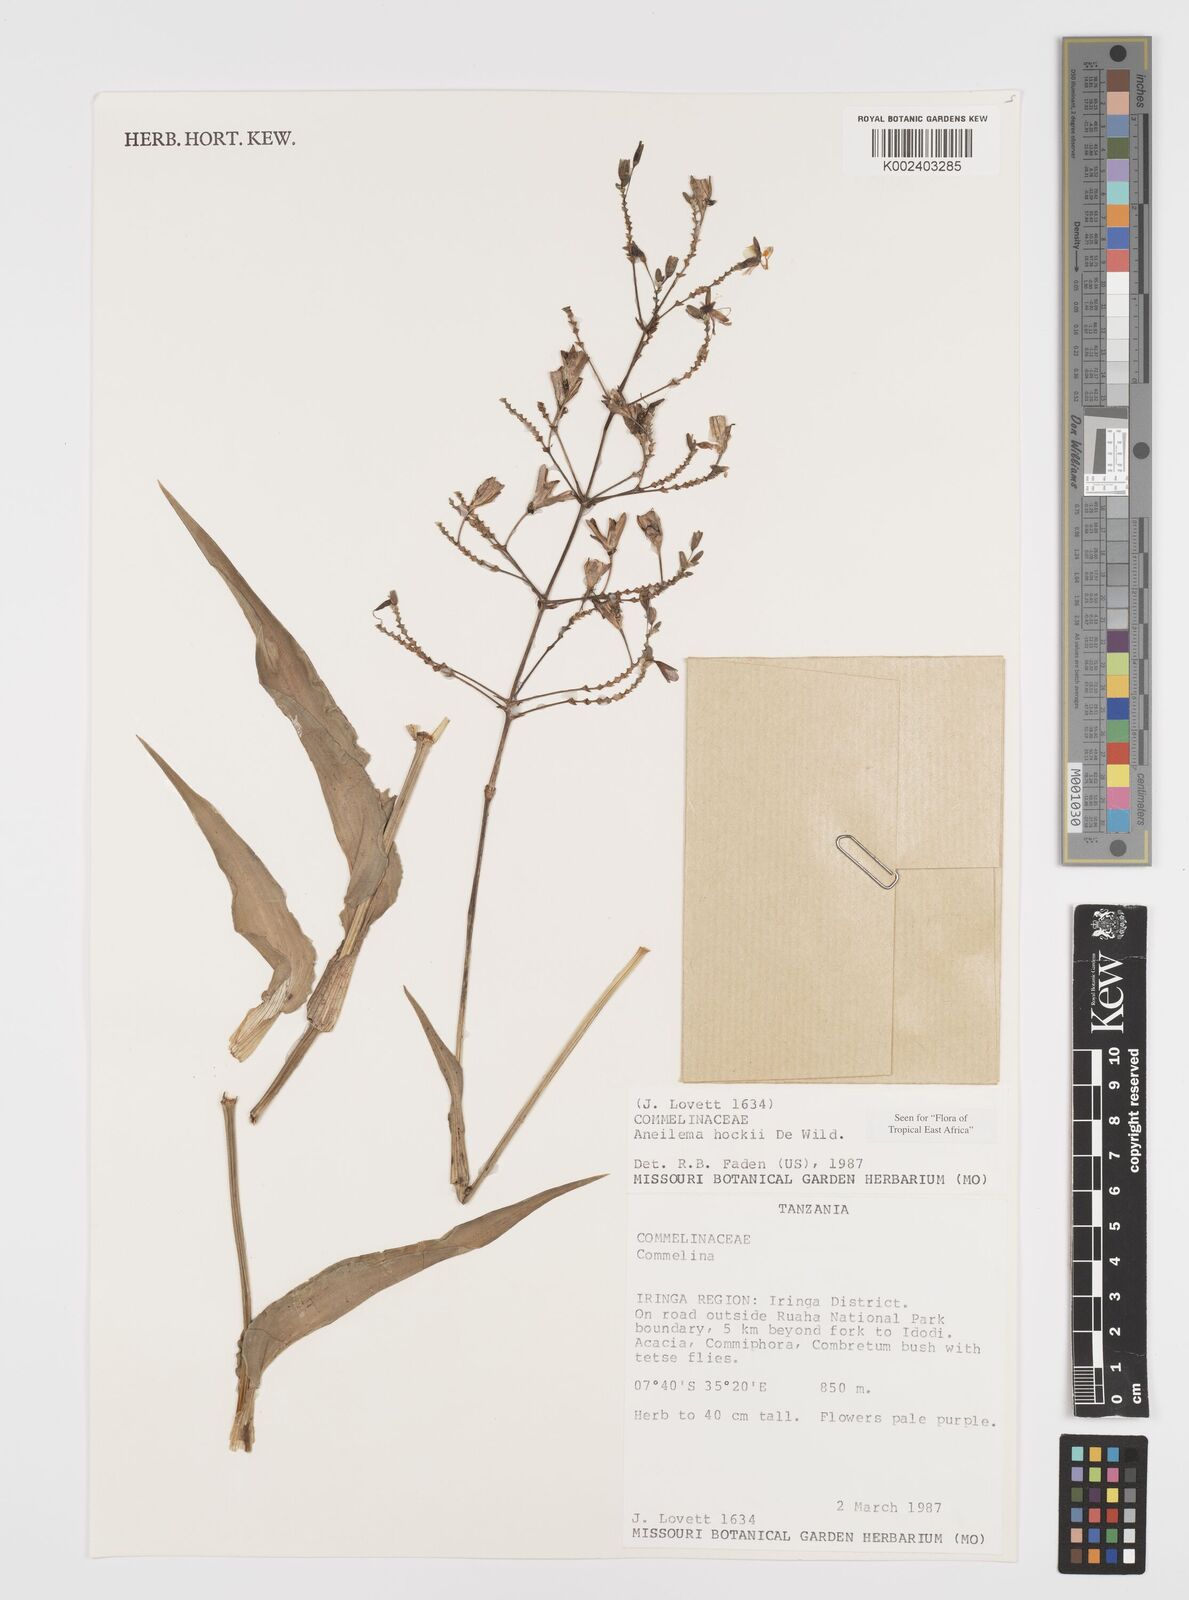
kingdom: Plantae
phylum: Tracheophyta
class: Liliopsida
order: Commelinales
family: Commelinaceae
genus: Aneilema
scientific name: Aneilema hockii
